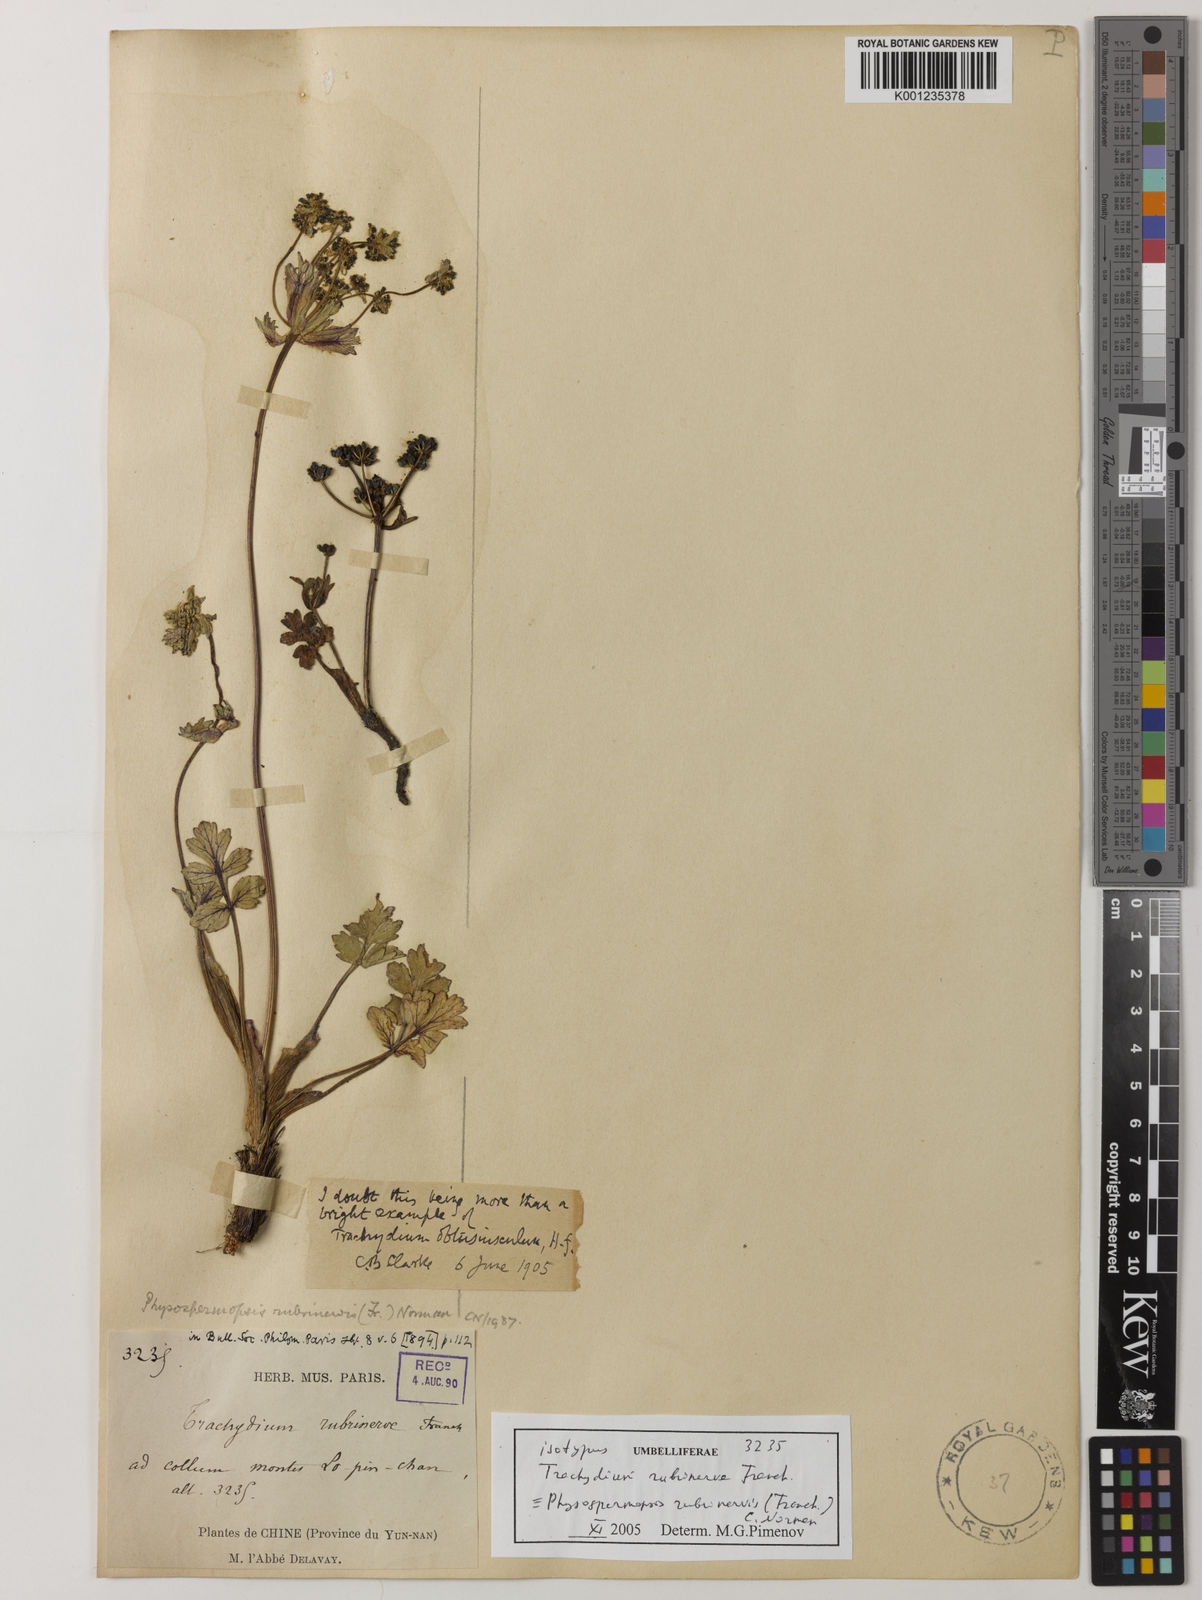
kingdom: Plantae
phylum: Tracheophyta
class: Magnoliopsida
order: Apiales
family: Apiaceae
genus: Physospermopsis
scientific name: Physospermopsis rubrinervis
